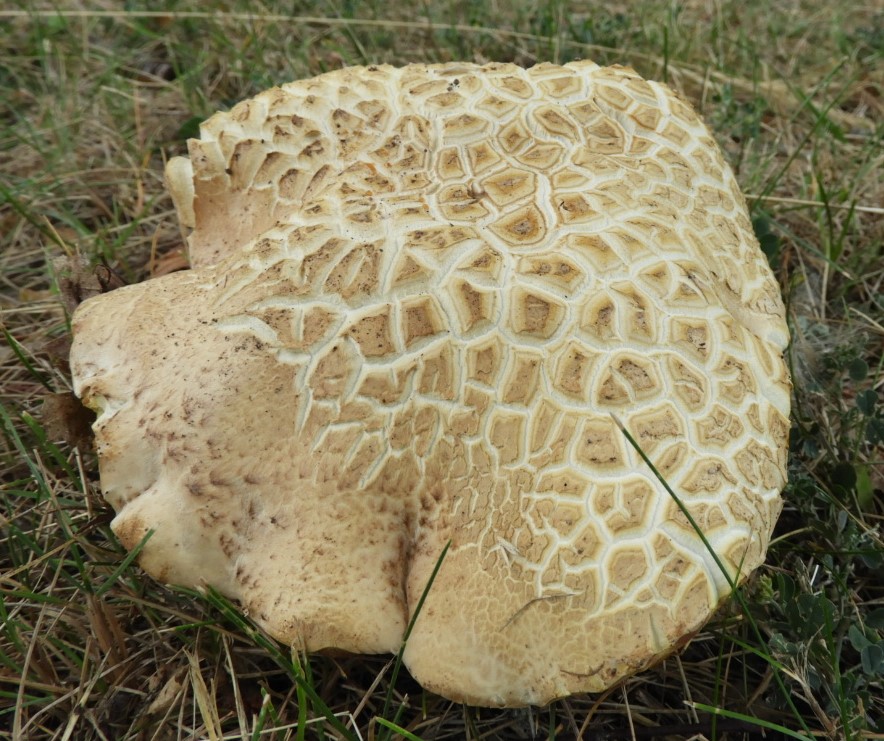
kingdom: Fungi
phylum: Basidiomycota
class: Agaricomycetes
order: Boletales
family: Boletaceae
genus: Caloboletus
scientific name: Caloboletus radicans
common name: rod-rørhat
